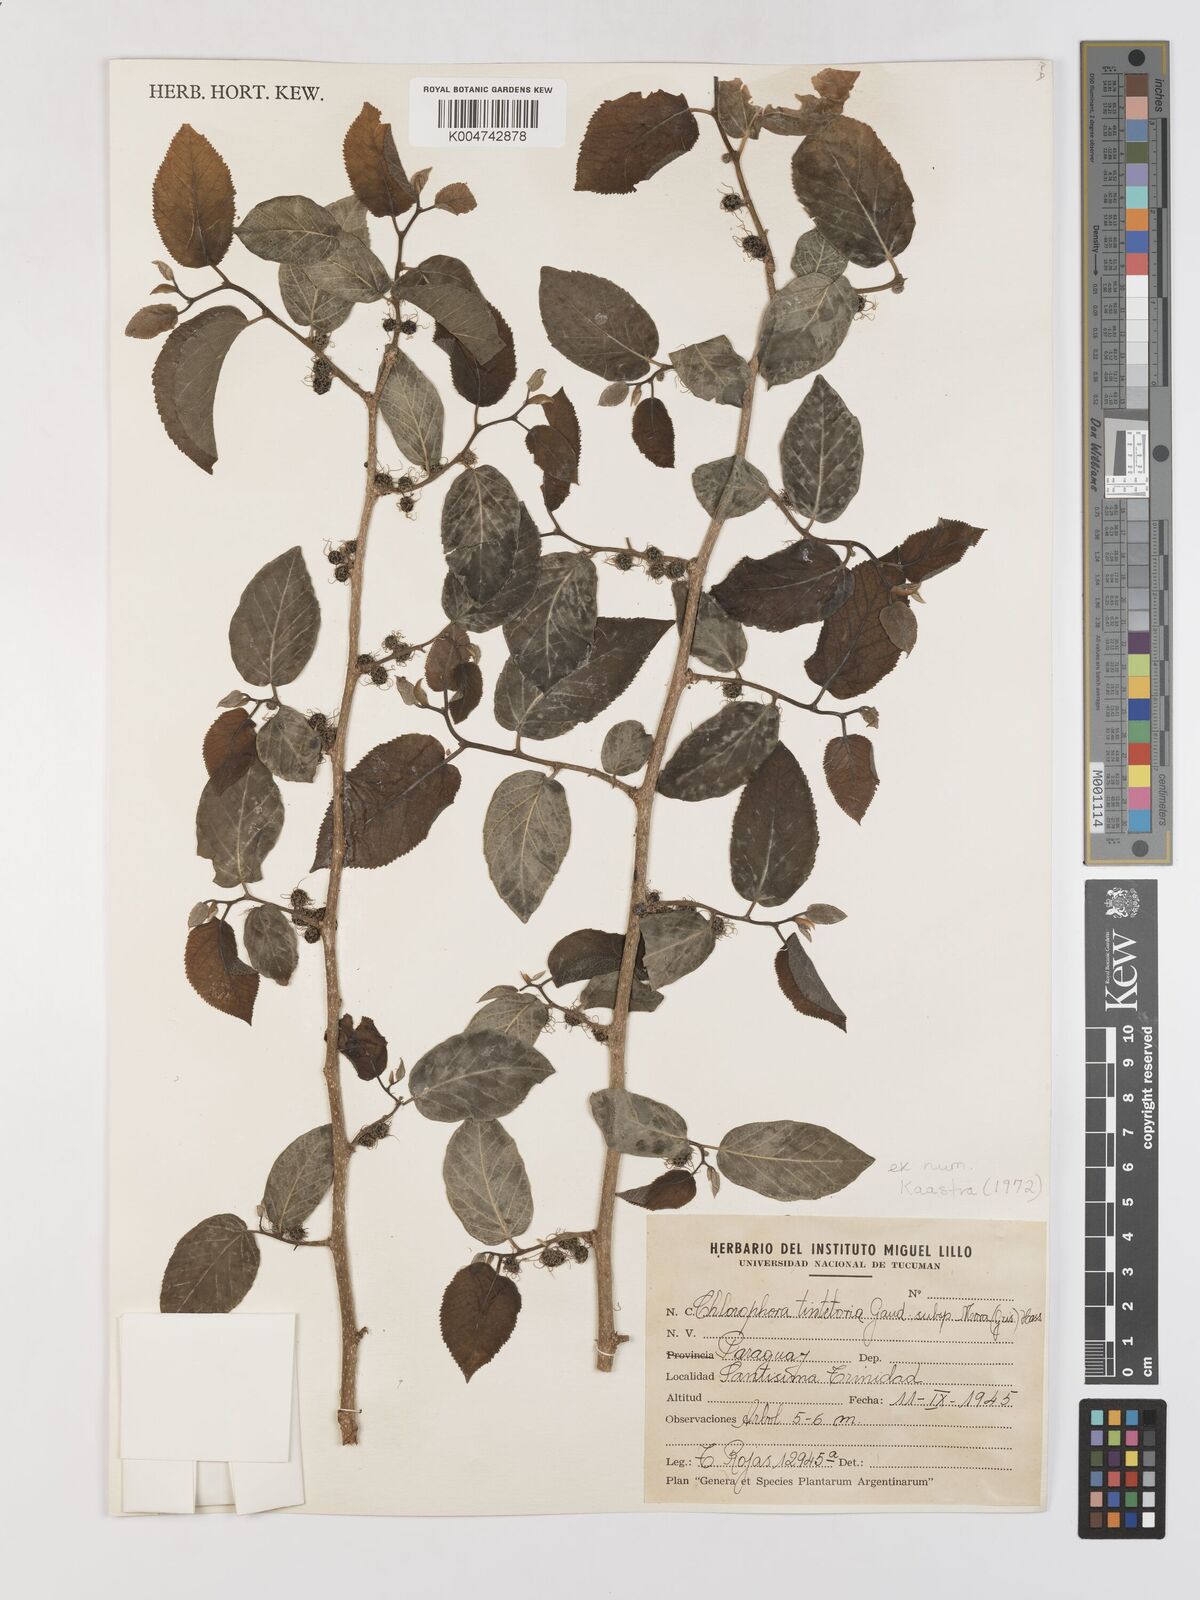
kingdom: Plantae
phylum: Tracheophyta
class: Magnoliopsida
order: Rosales
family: Moraceae
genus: Maclura
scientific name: Maclura tinctoria
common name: Old fustic
